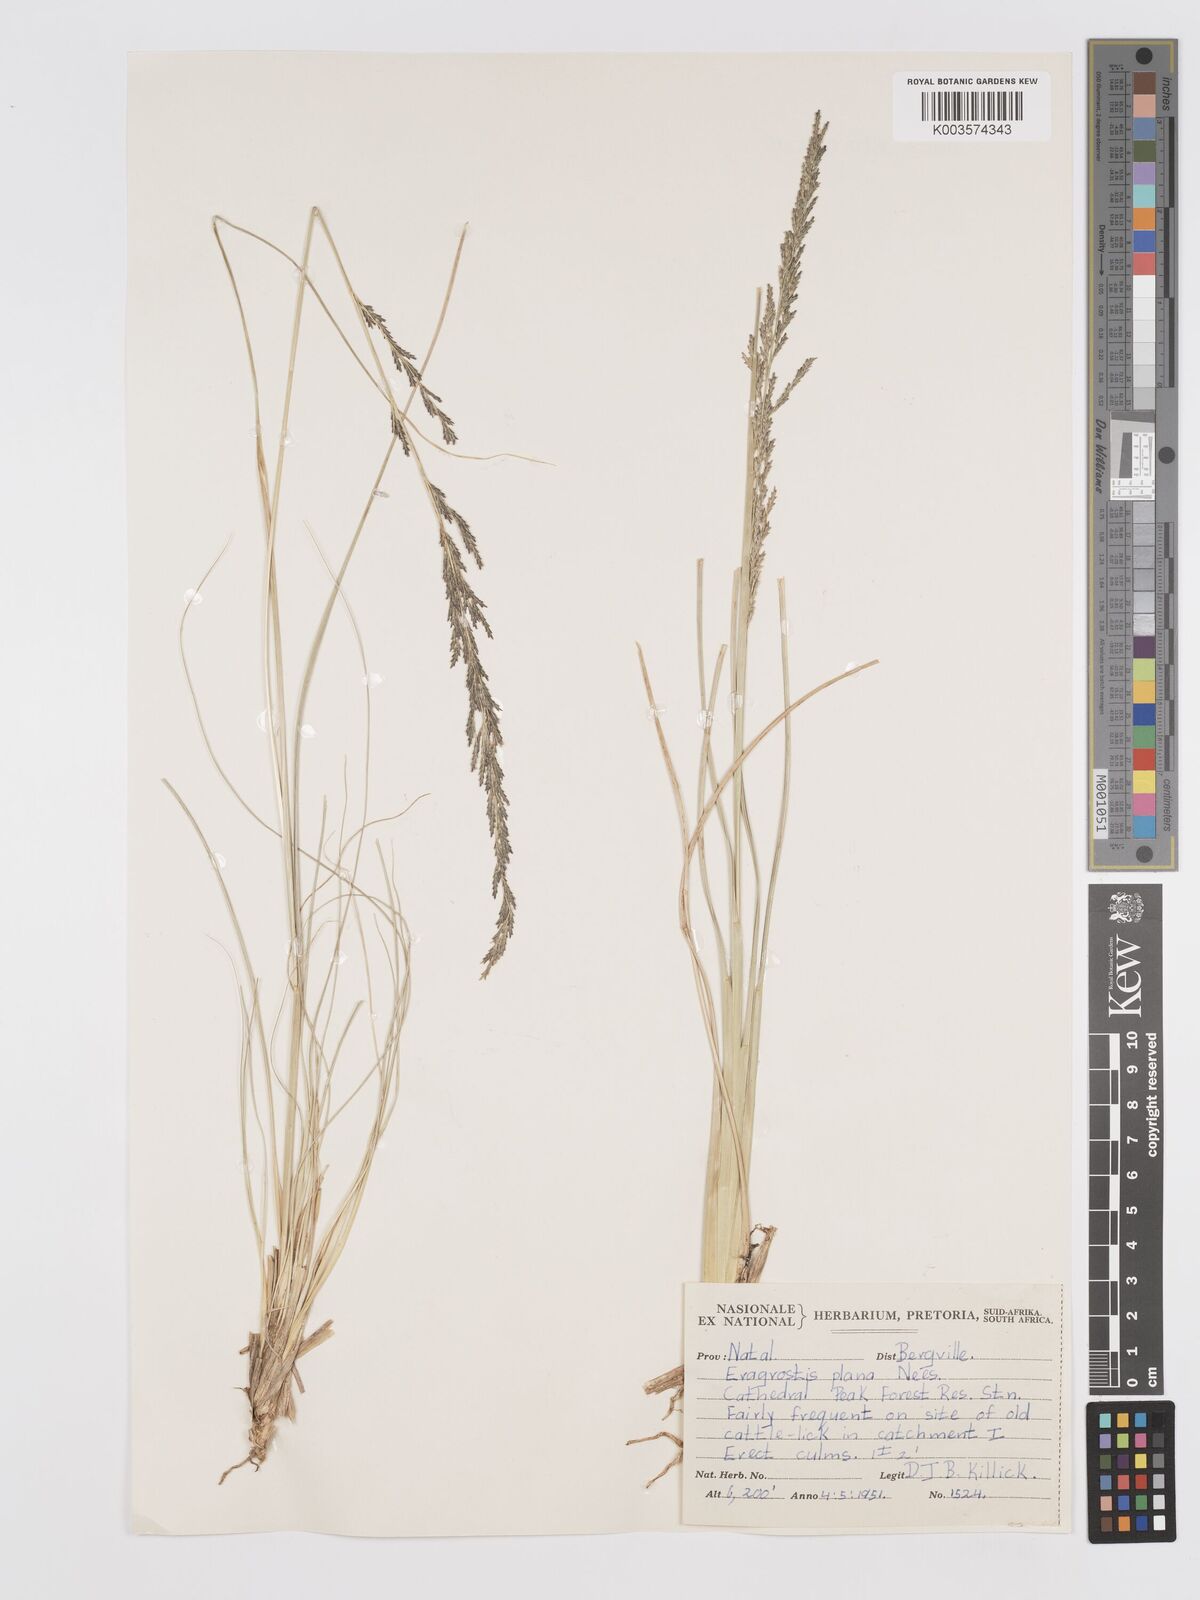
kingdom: Plantae
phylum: Tracheophyta
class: Liliopsida
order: Poales
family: Poaceae
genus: Eragrostis
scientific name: Eragrostis plana
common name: South african lovegrass
